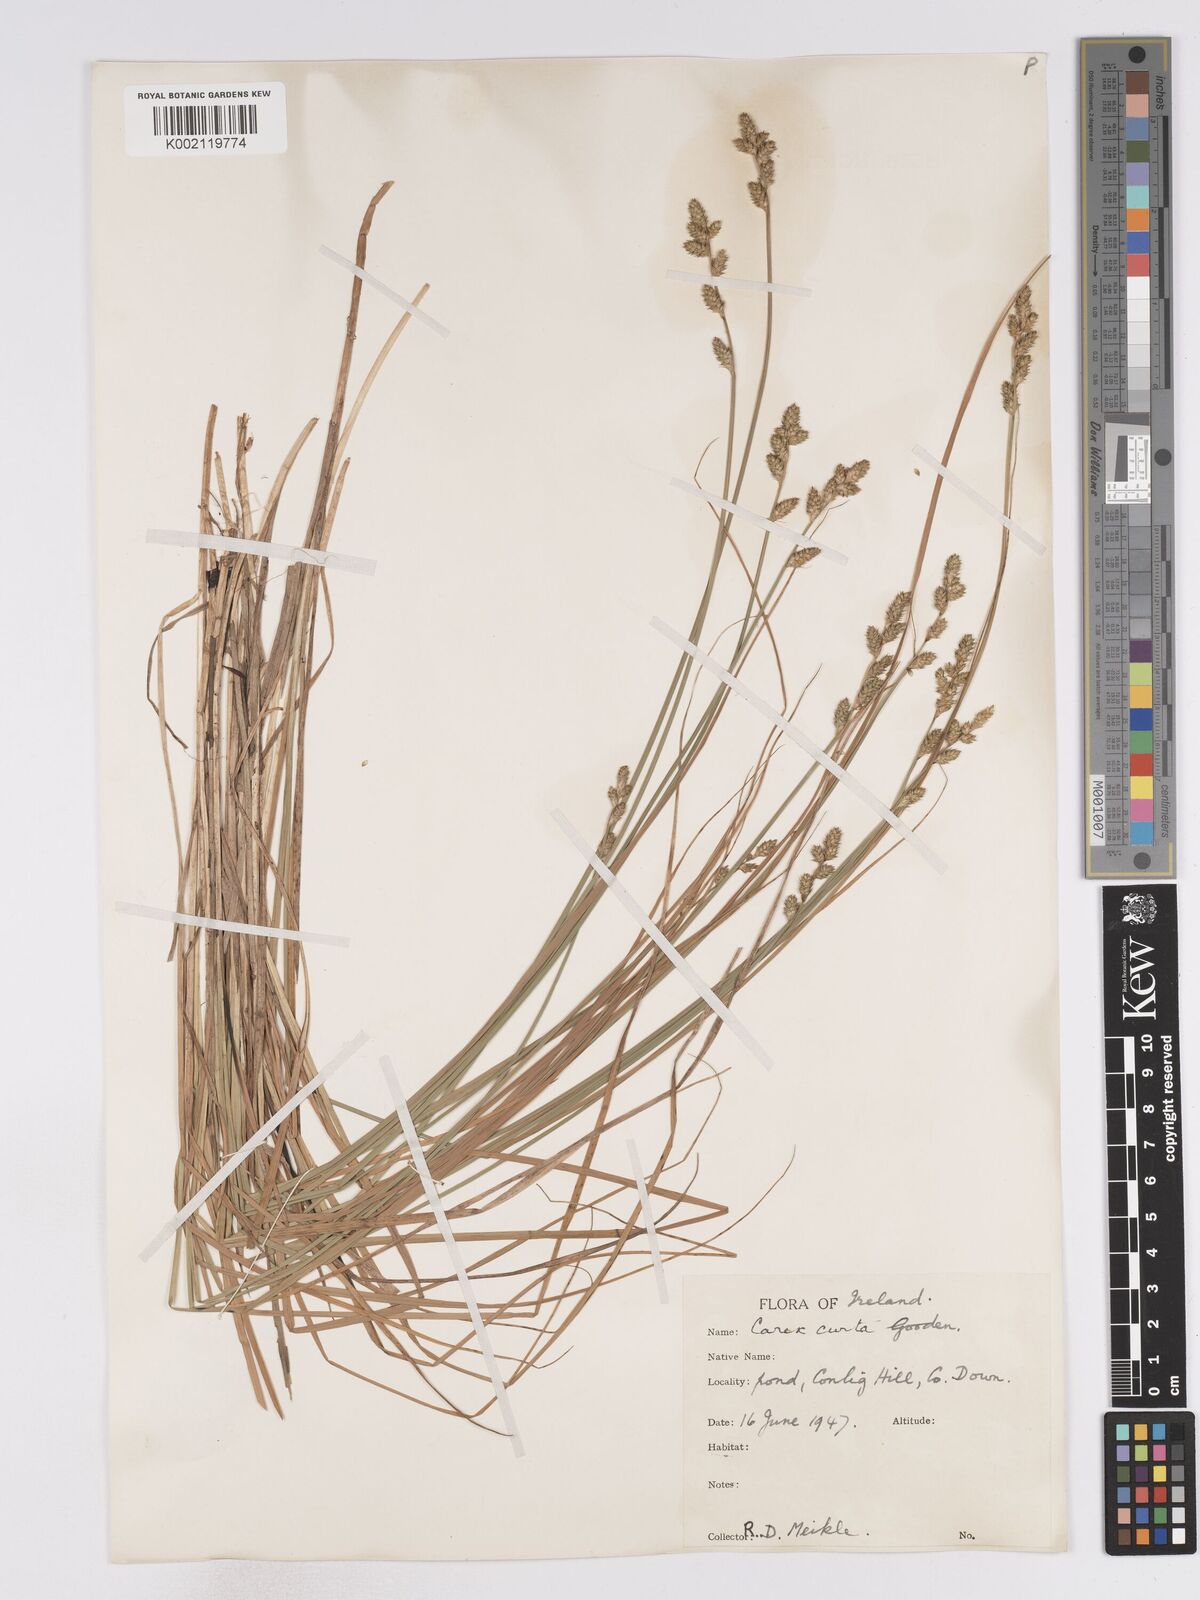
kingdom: Plantae
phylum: Tracheophyta
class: Liliopsida
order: Poales
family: Cyperaceae
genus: Carex
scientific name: Carex curta
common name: White sedge
